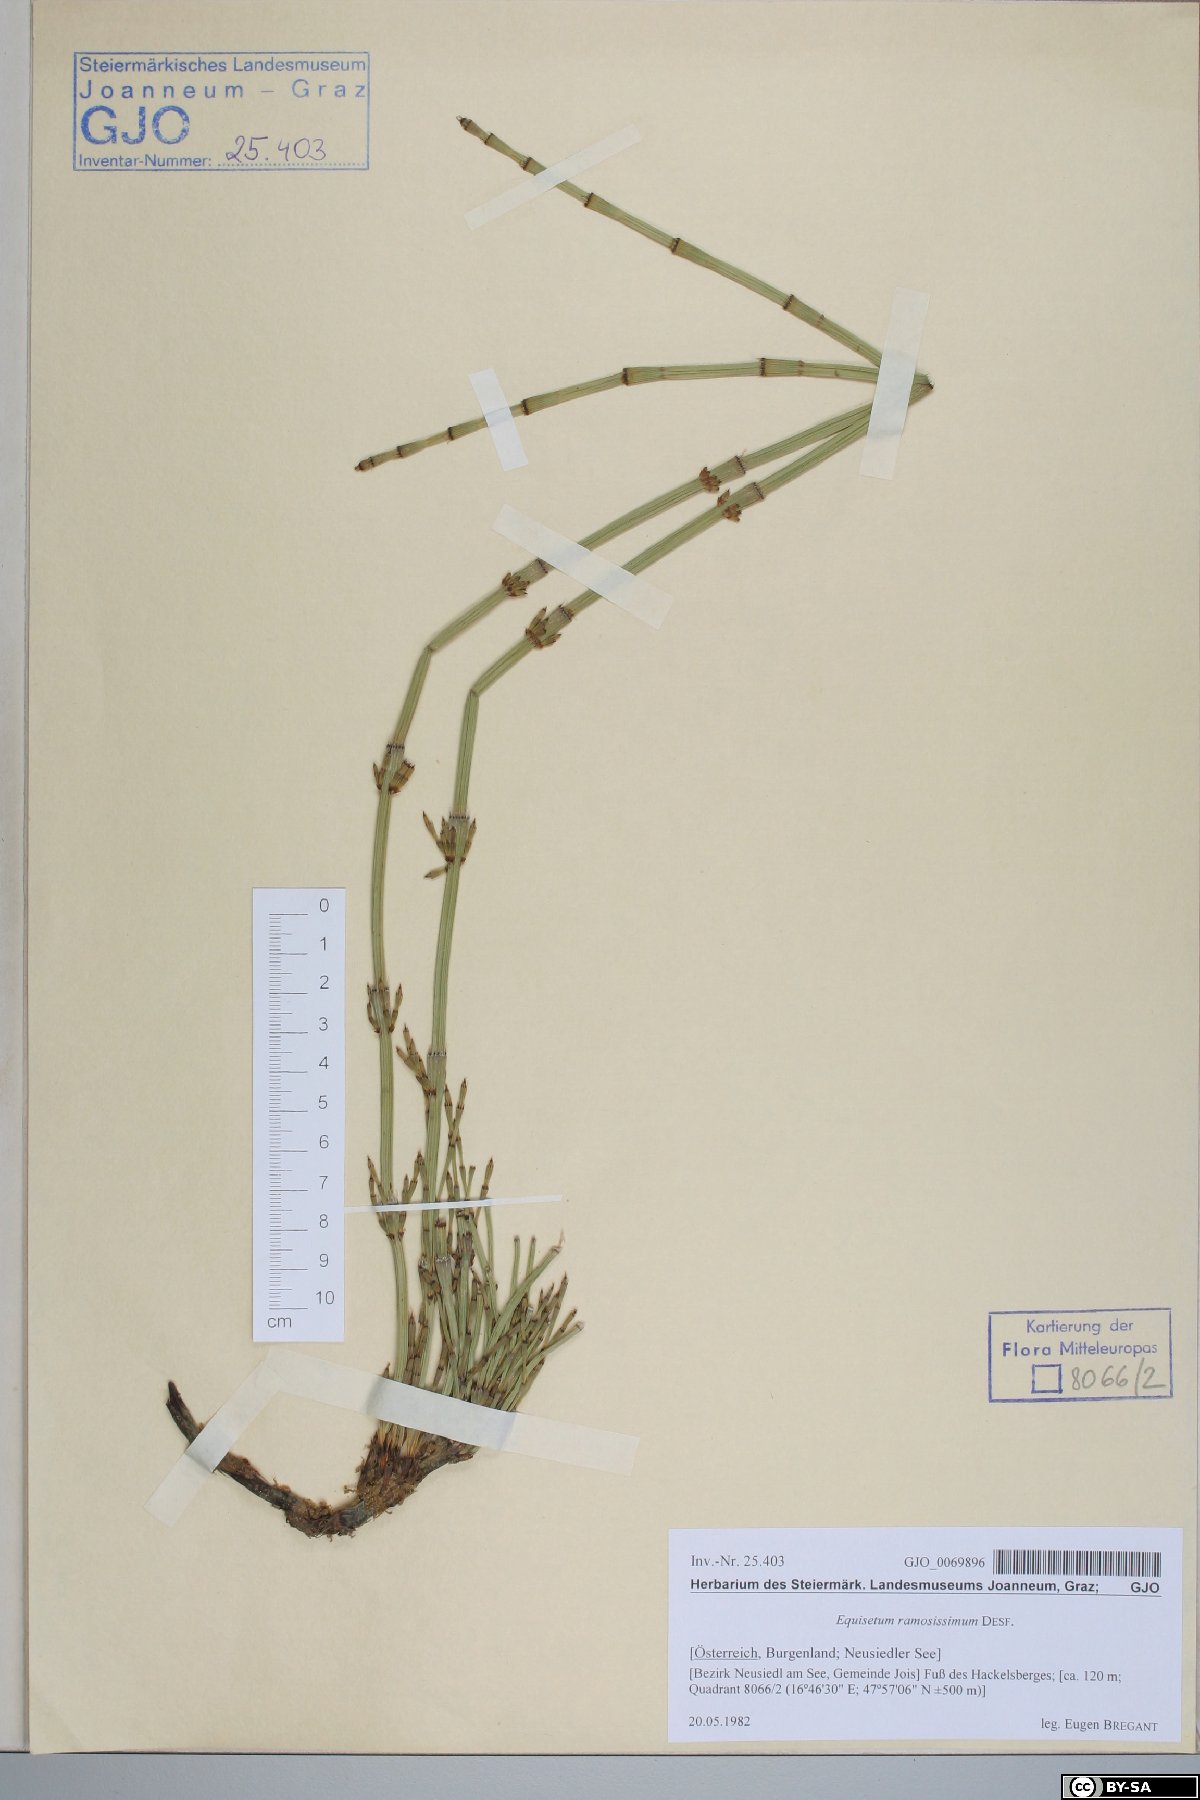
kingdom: Plantae
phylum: Tracheophyta
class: Polypodiopsida
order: Equisetales
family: Equisetaceae
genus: Equisetum
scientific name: Equisetum ramosissimum
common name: Branched horsetail
